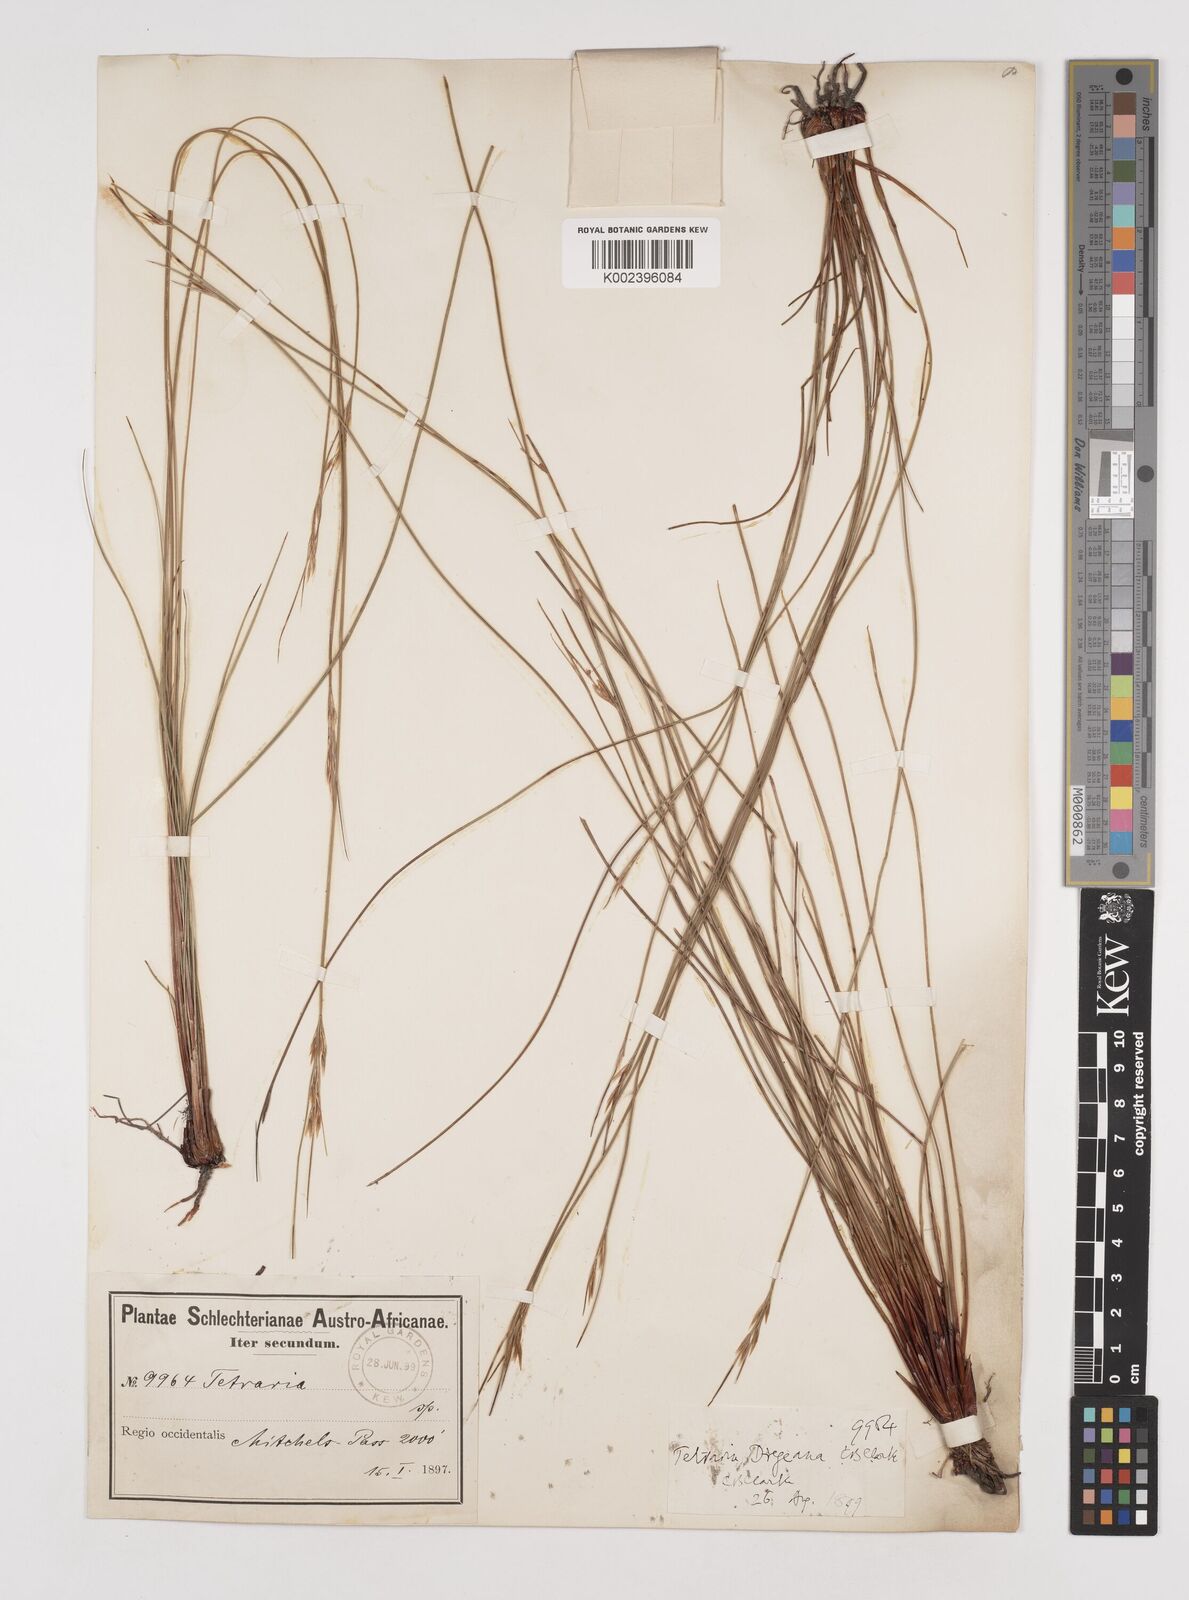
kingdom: Plantae
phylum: Tracheophyta
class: Liliopsida
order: Poales
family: Cyperaceae
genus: Schoenus
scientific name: Schoenus dregeanus
